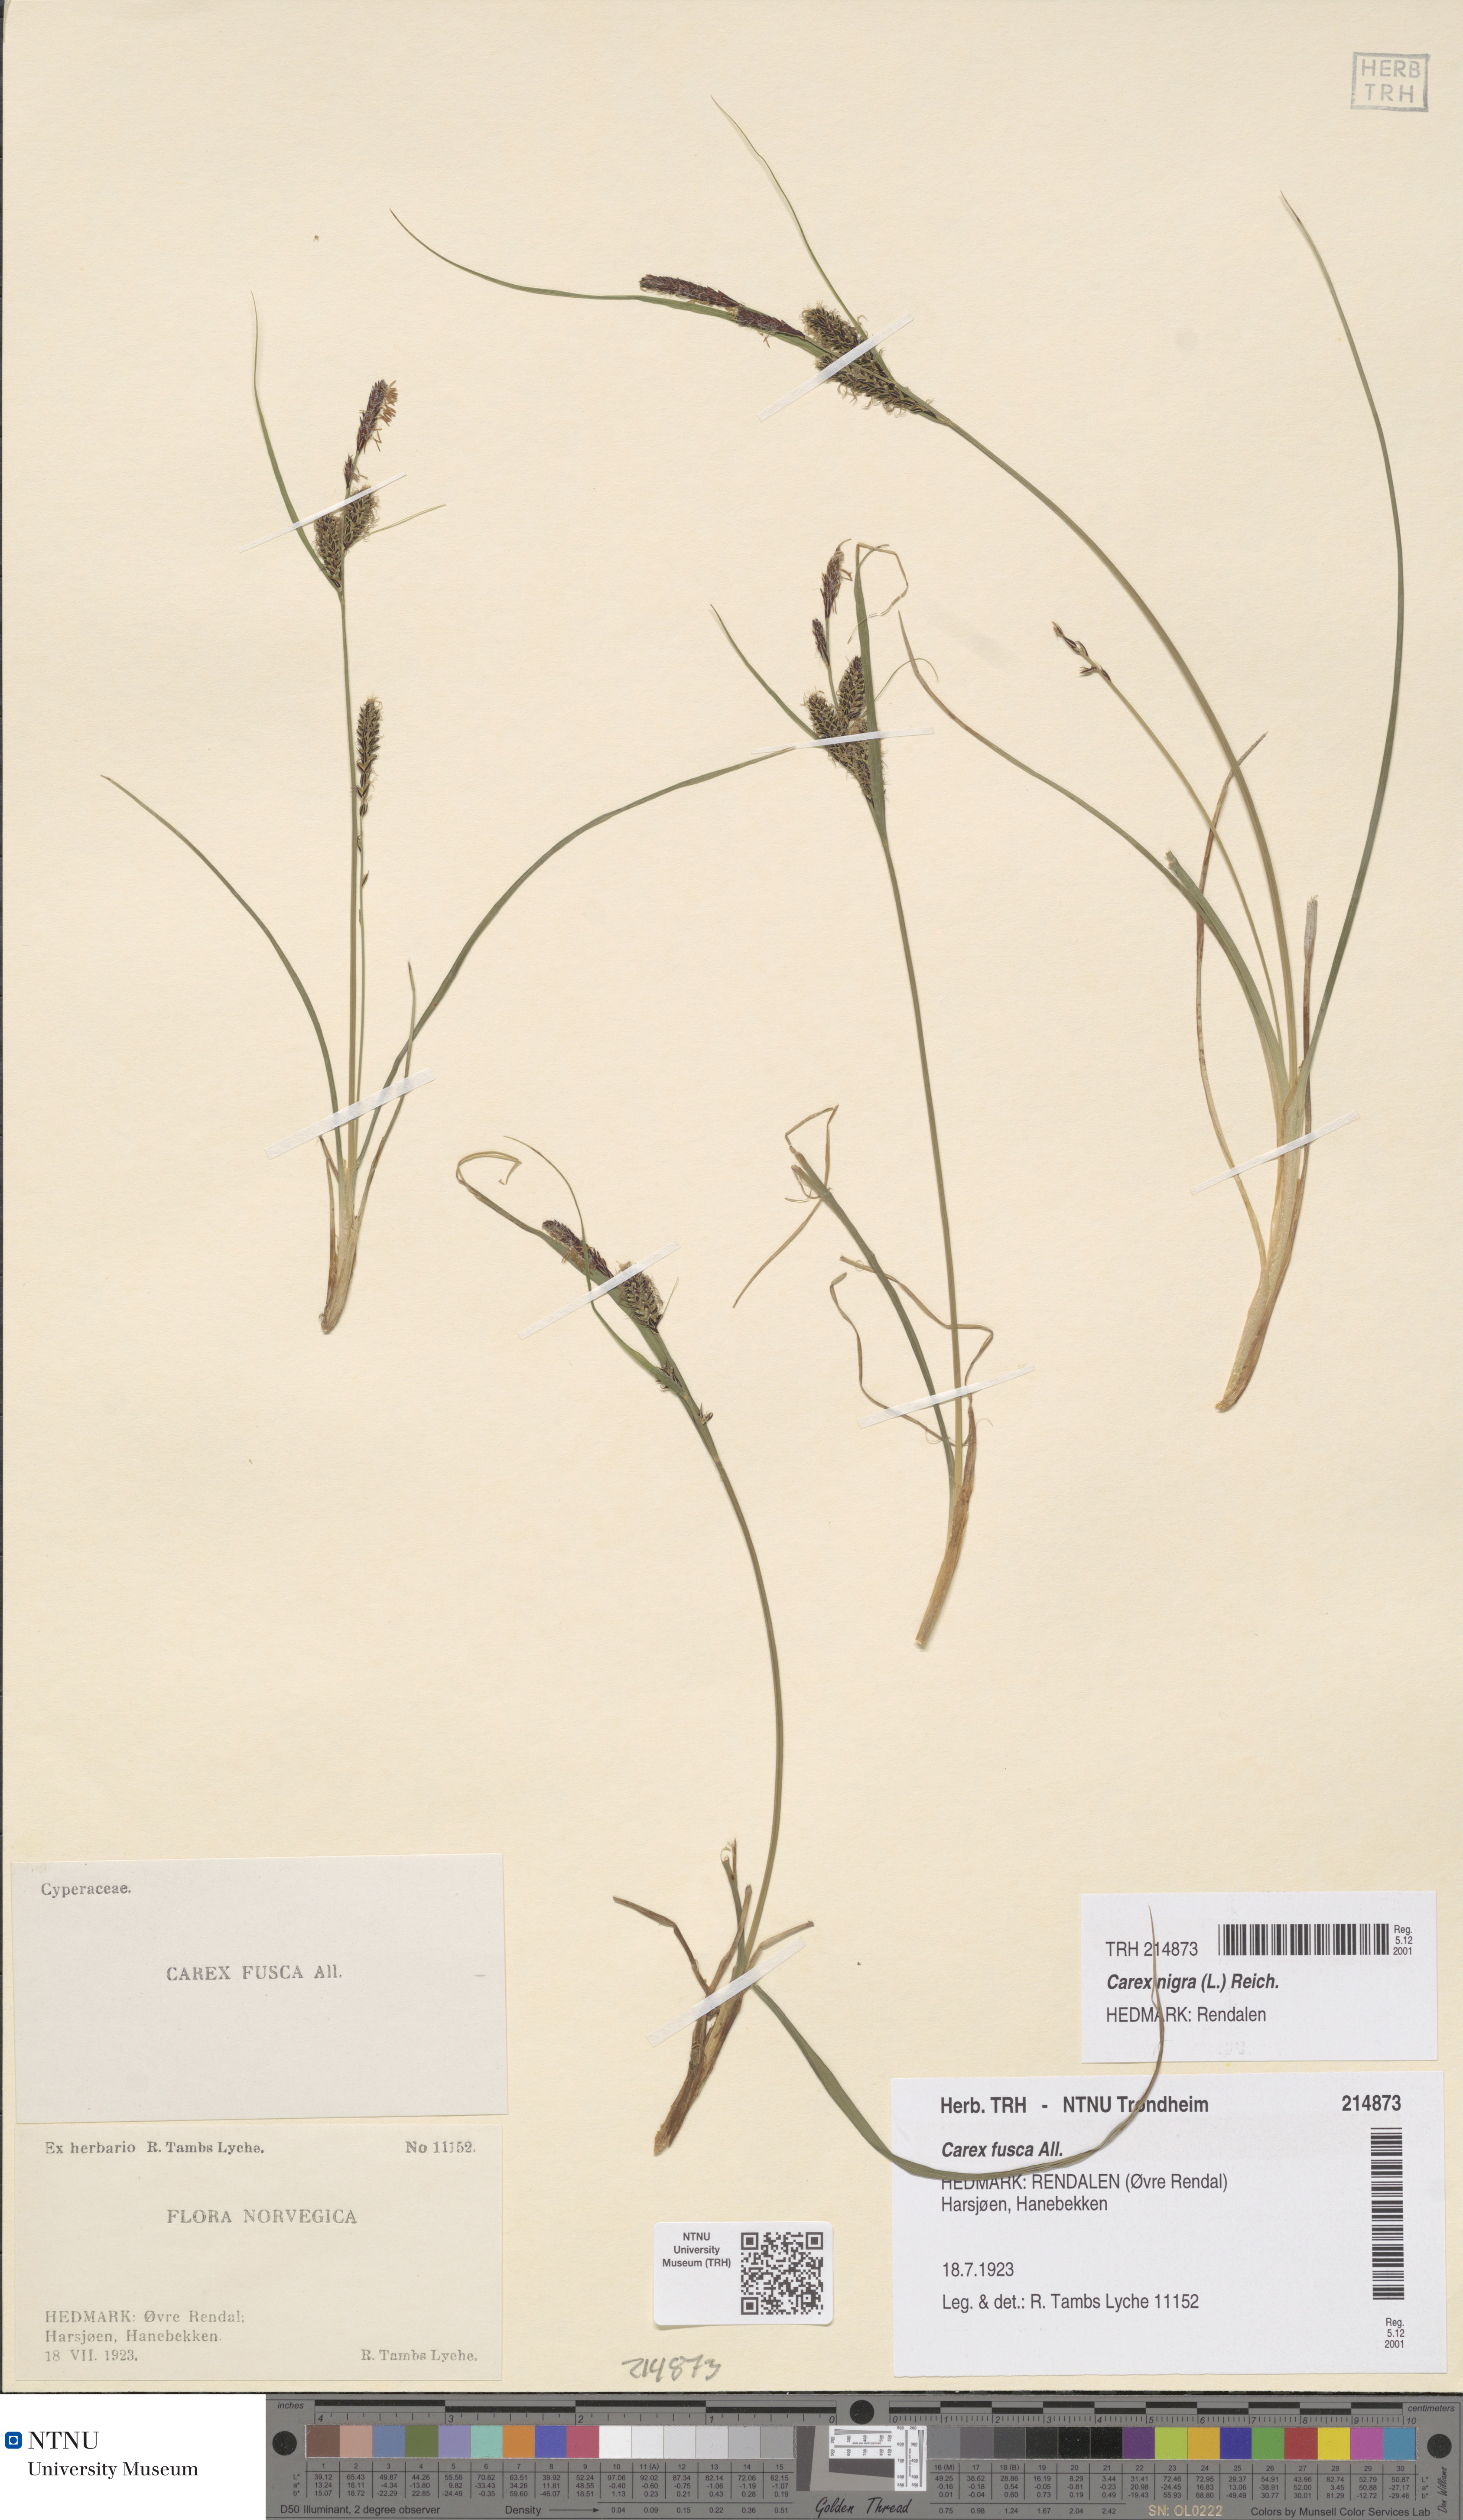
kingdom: Plantae
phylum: Tracheophyta
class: Liliopsida
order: Poales
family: Cyperaceae
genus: Carex
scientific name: Carex nigra
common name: Common sedge
